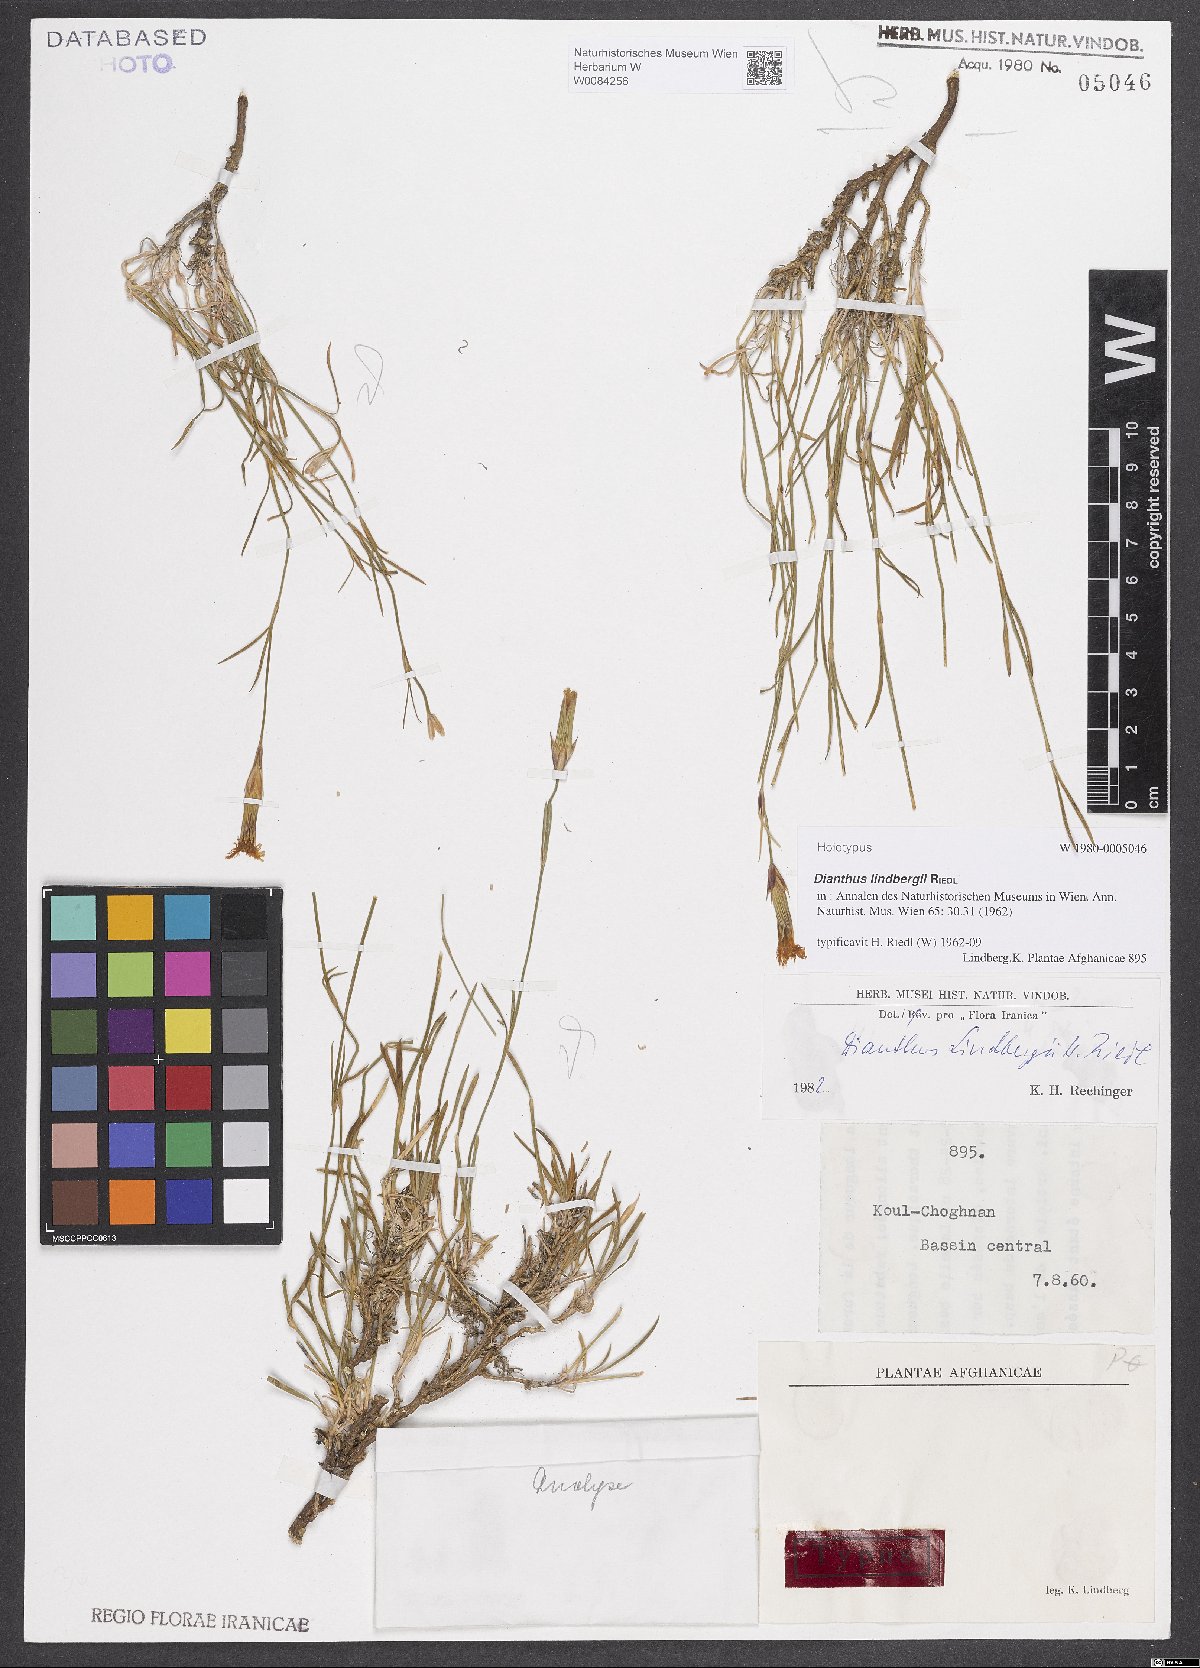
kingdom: Plantae
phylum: Tracheophyta
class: Magnoliopsida
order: Caryophyllales
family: Caryophyllaceae
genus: Dianthus
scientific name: Dianthus lindbergii
